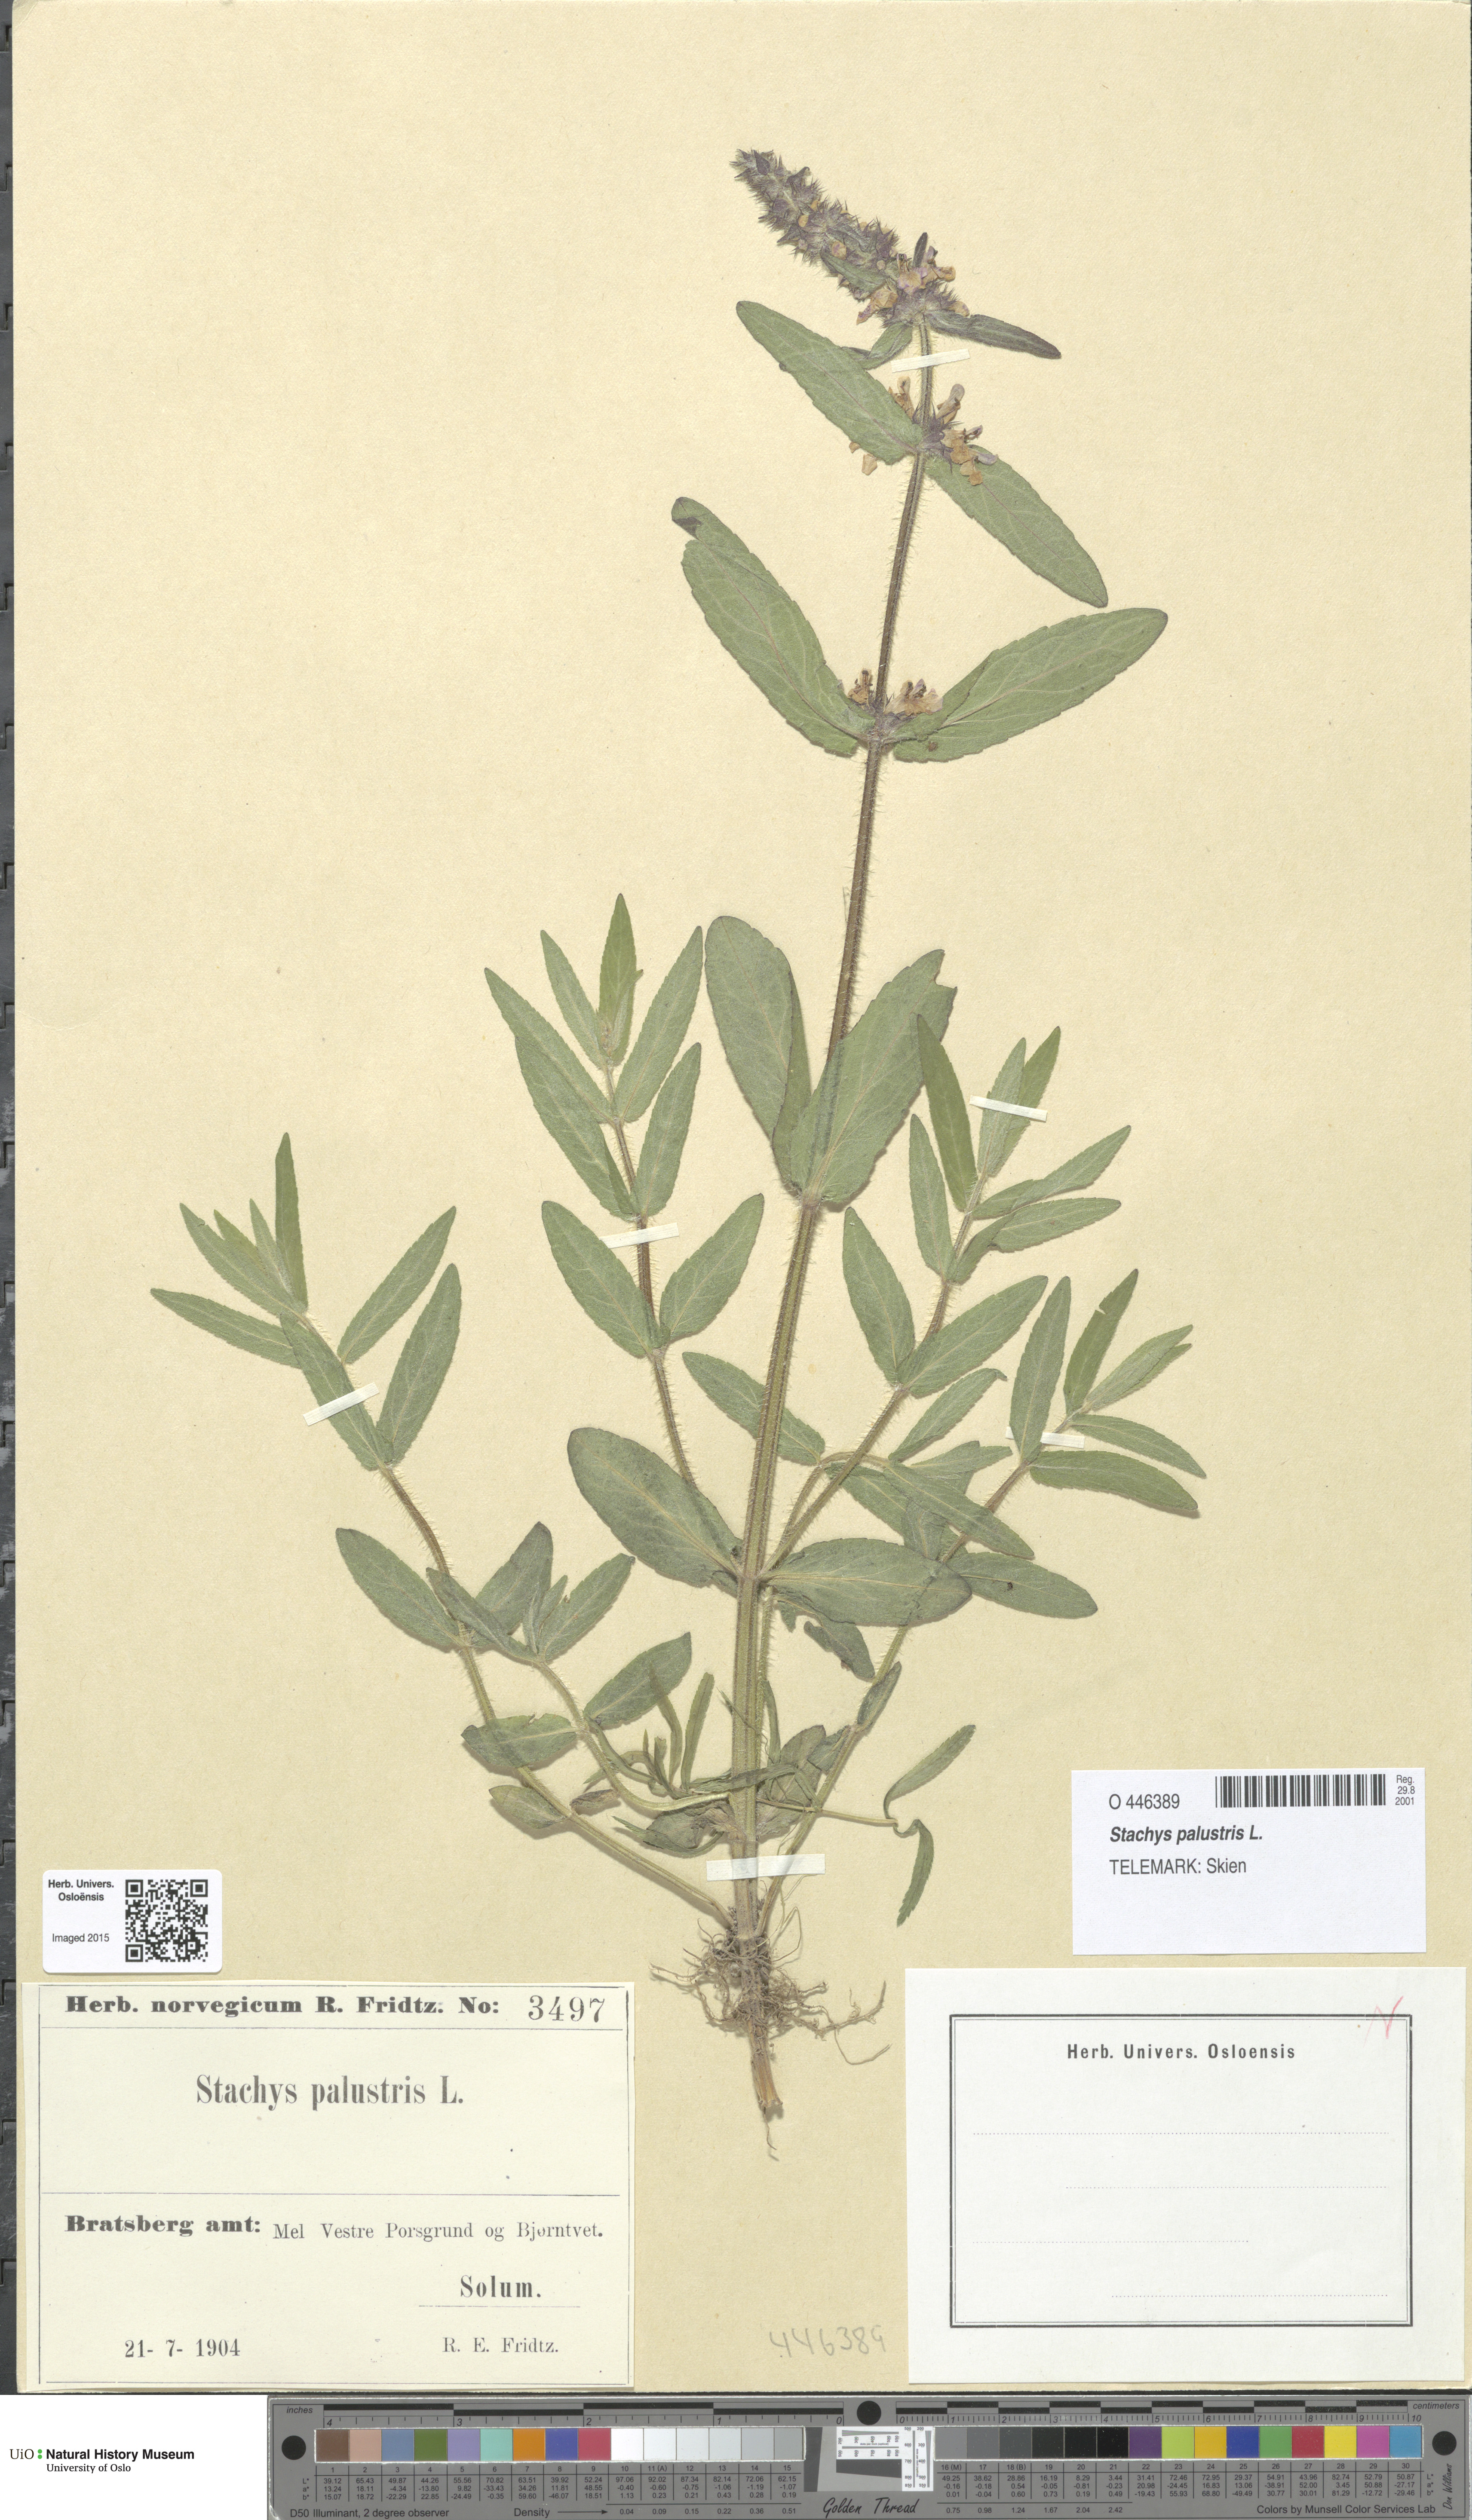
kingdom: Plantae
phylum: Tracheophyta
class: Magnoliopsida
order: Lamiales
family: Lamiaceae
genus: Stachys
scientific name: Stachys palustris
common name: Marsh woundwort
